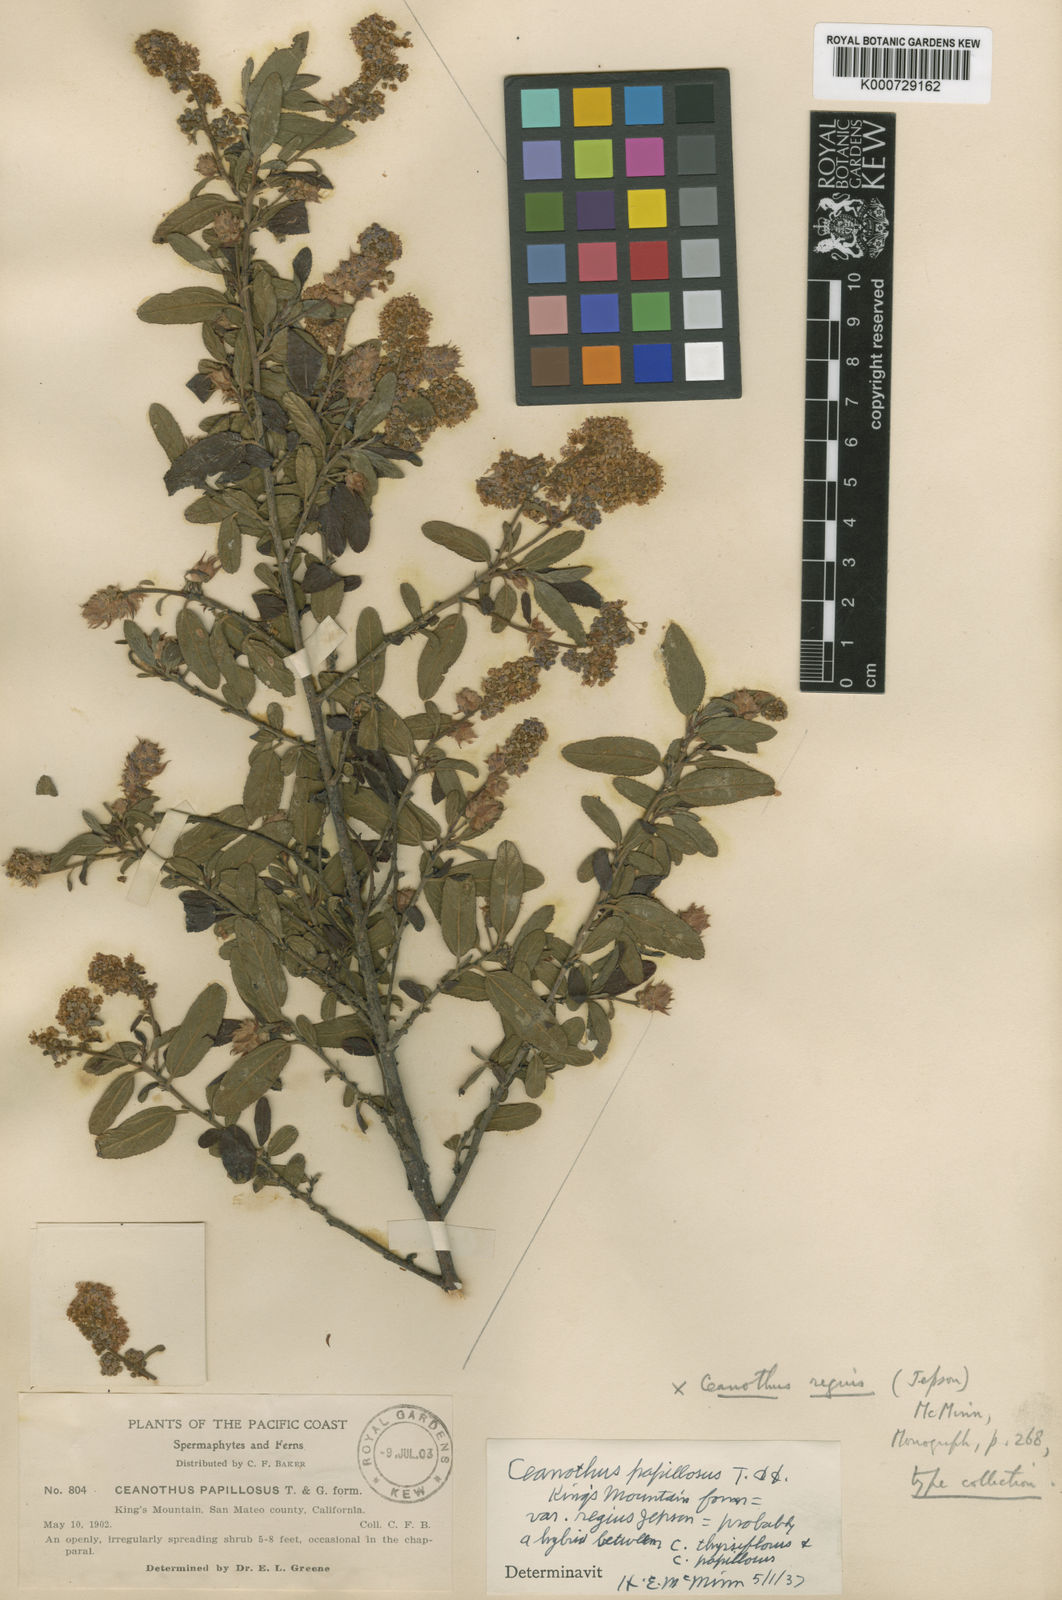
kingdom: Plantae
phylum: Tracheophyta
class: Magnoliopsida
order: Rosales
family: Rhamnaceae
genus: Ceanothus
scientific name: Ceanothus papillosus
